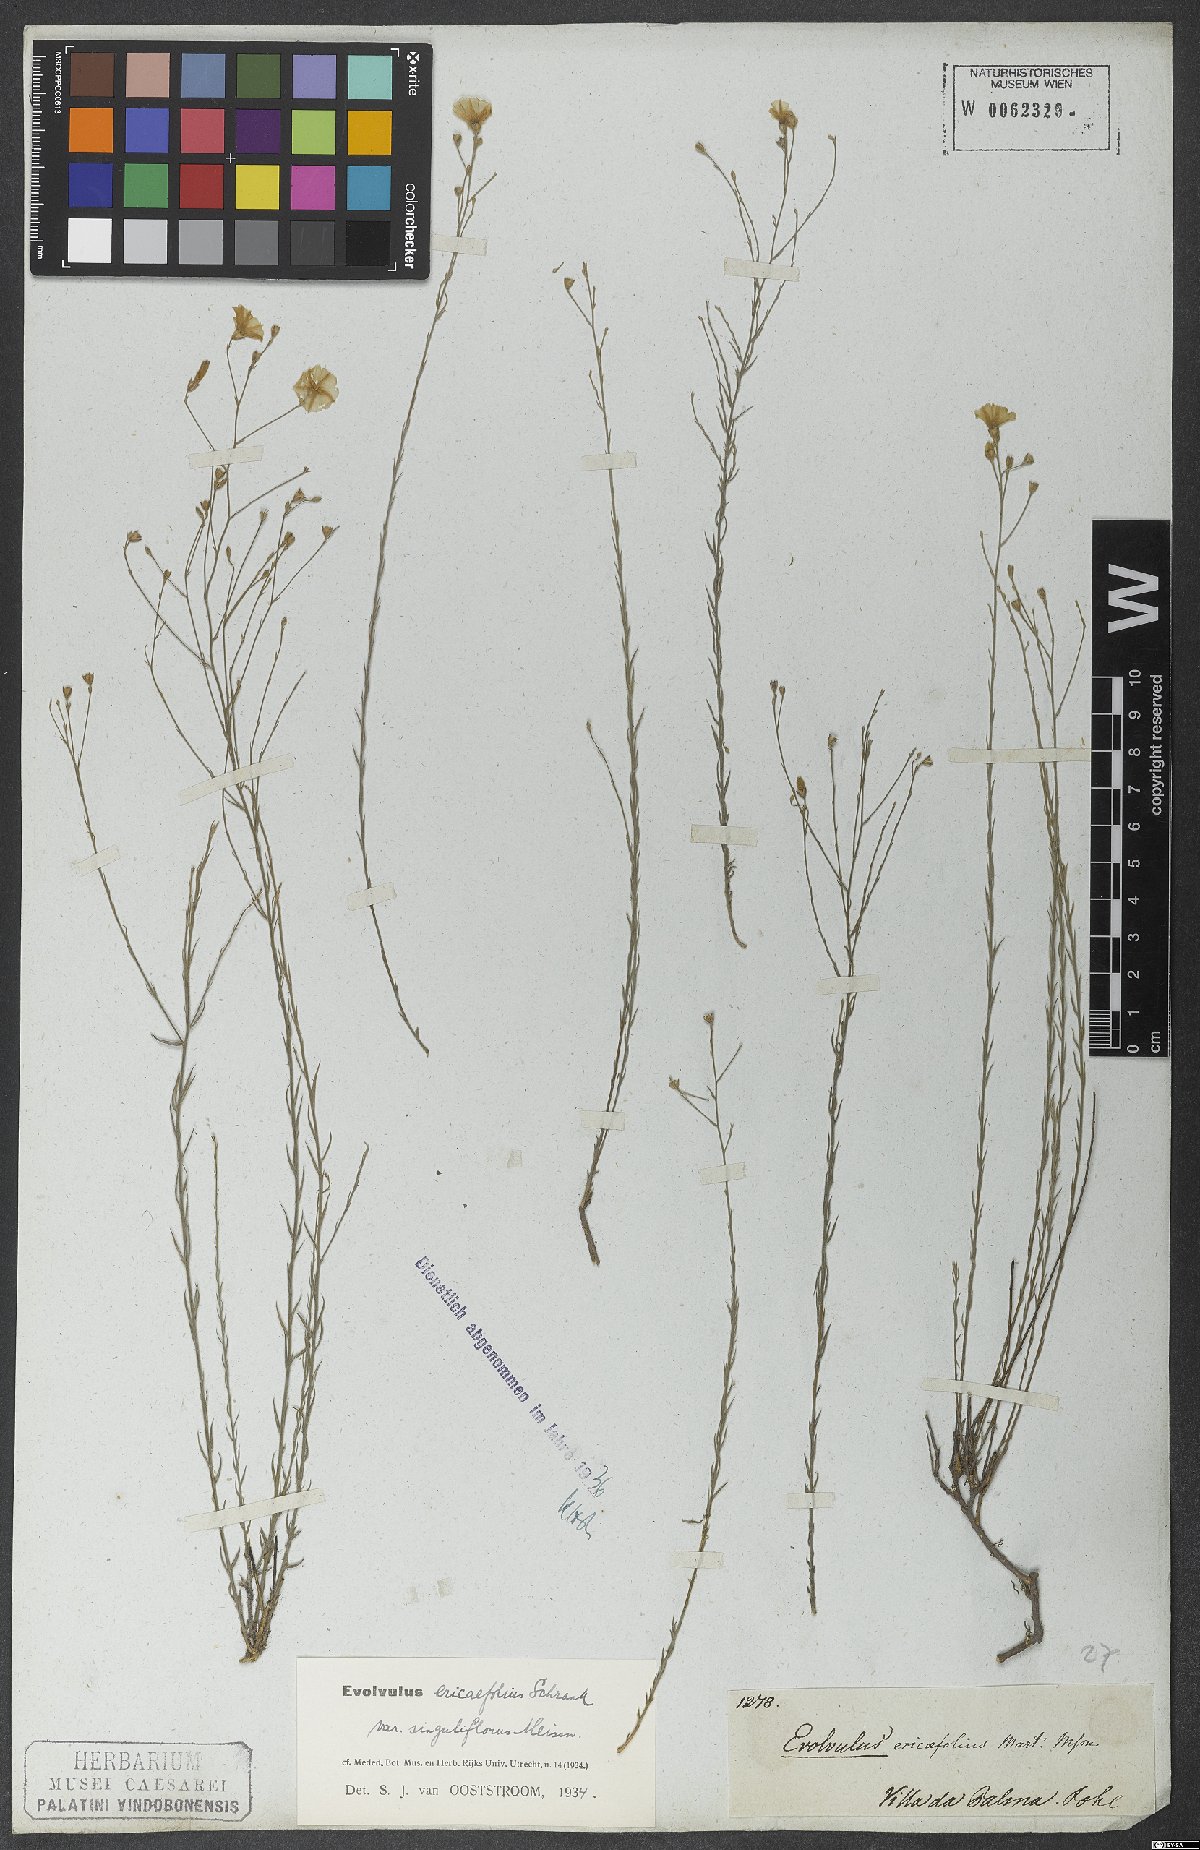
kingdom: Plantae
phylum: Tracheophyta
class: Magnoliopsida
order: Solanales
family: Convolvulaceae
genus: Evolvulus
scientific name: Evolvulus ericifolius
